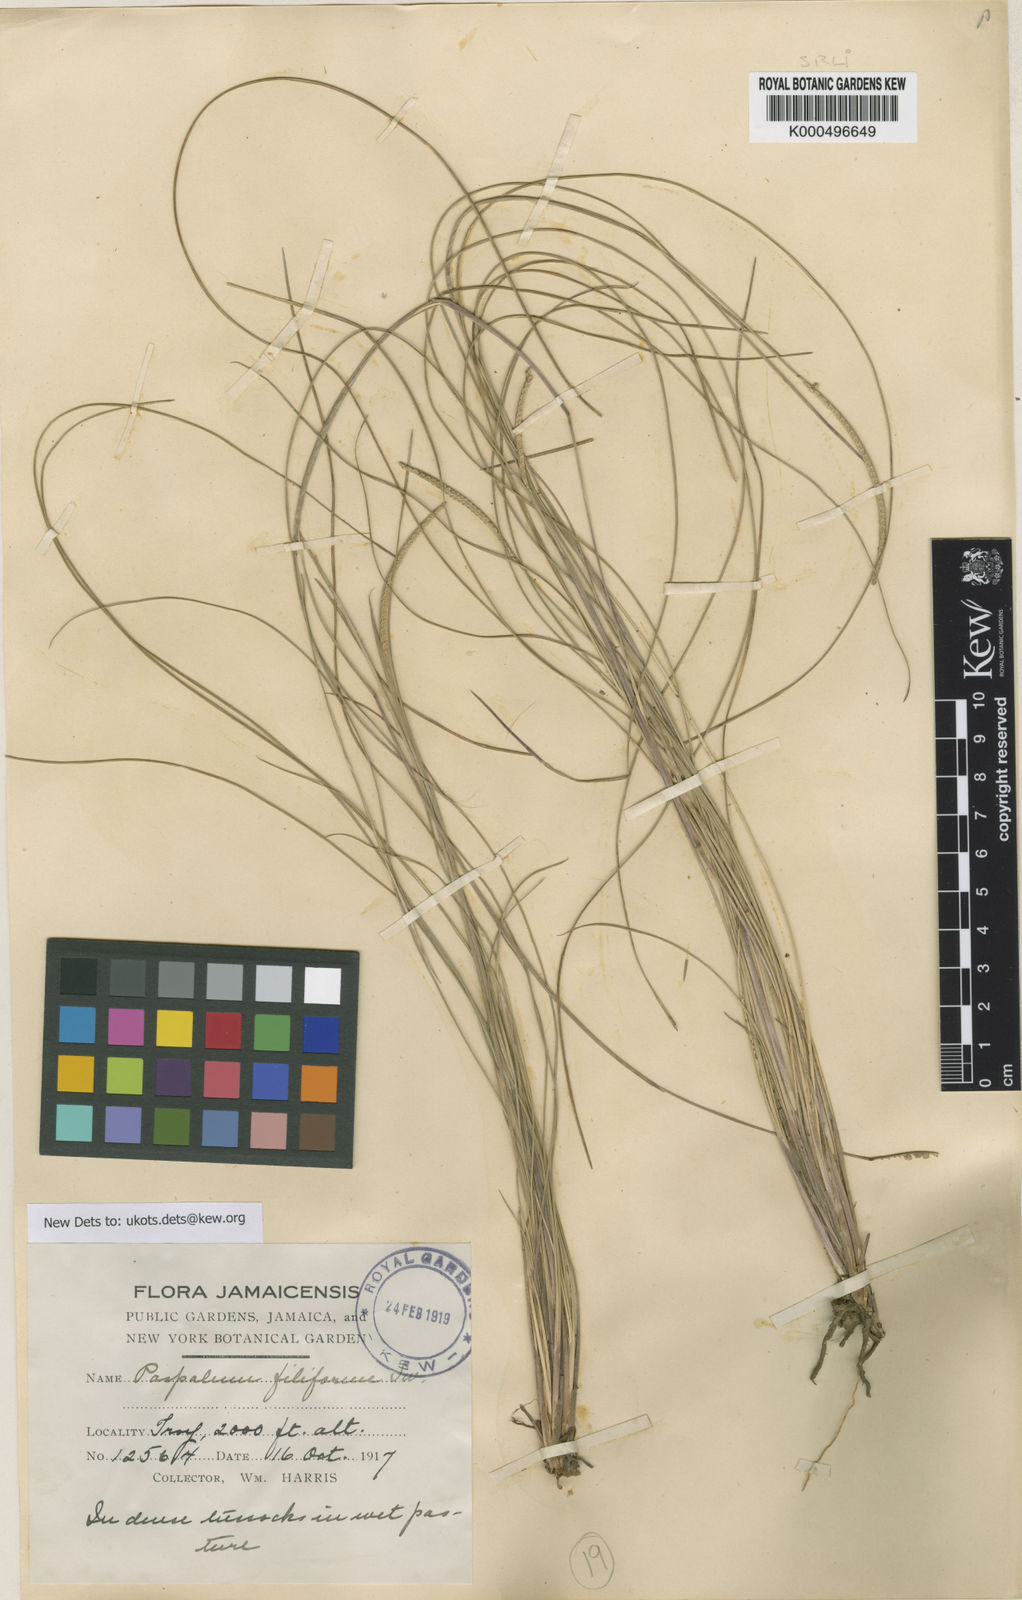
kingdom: Plantae
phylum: Tracheophyta
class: Liliopsida
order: Poales
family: Poaceae
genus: Paspalum
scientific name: Paspalum distortum
